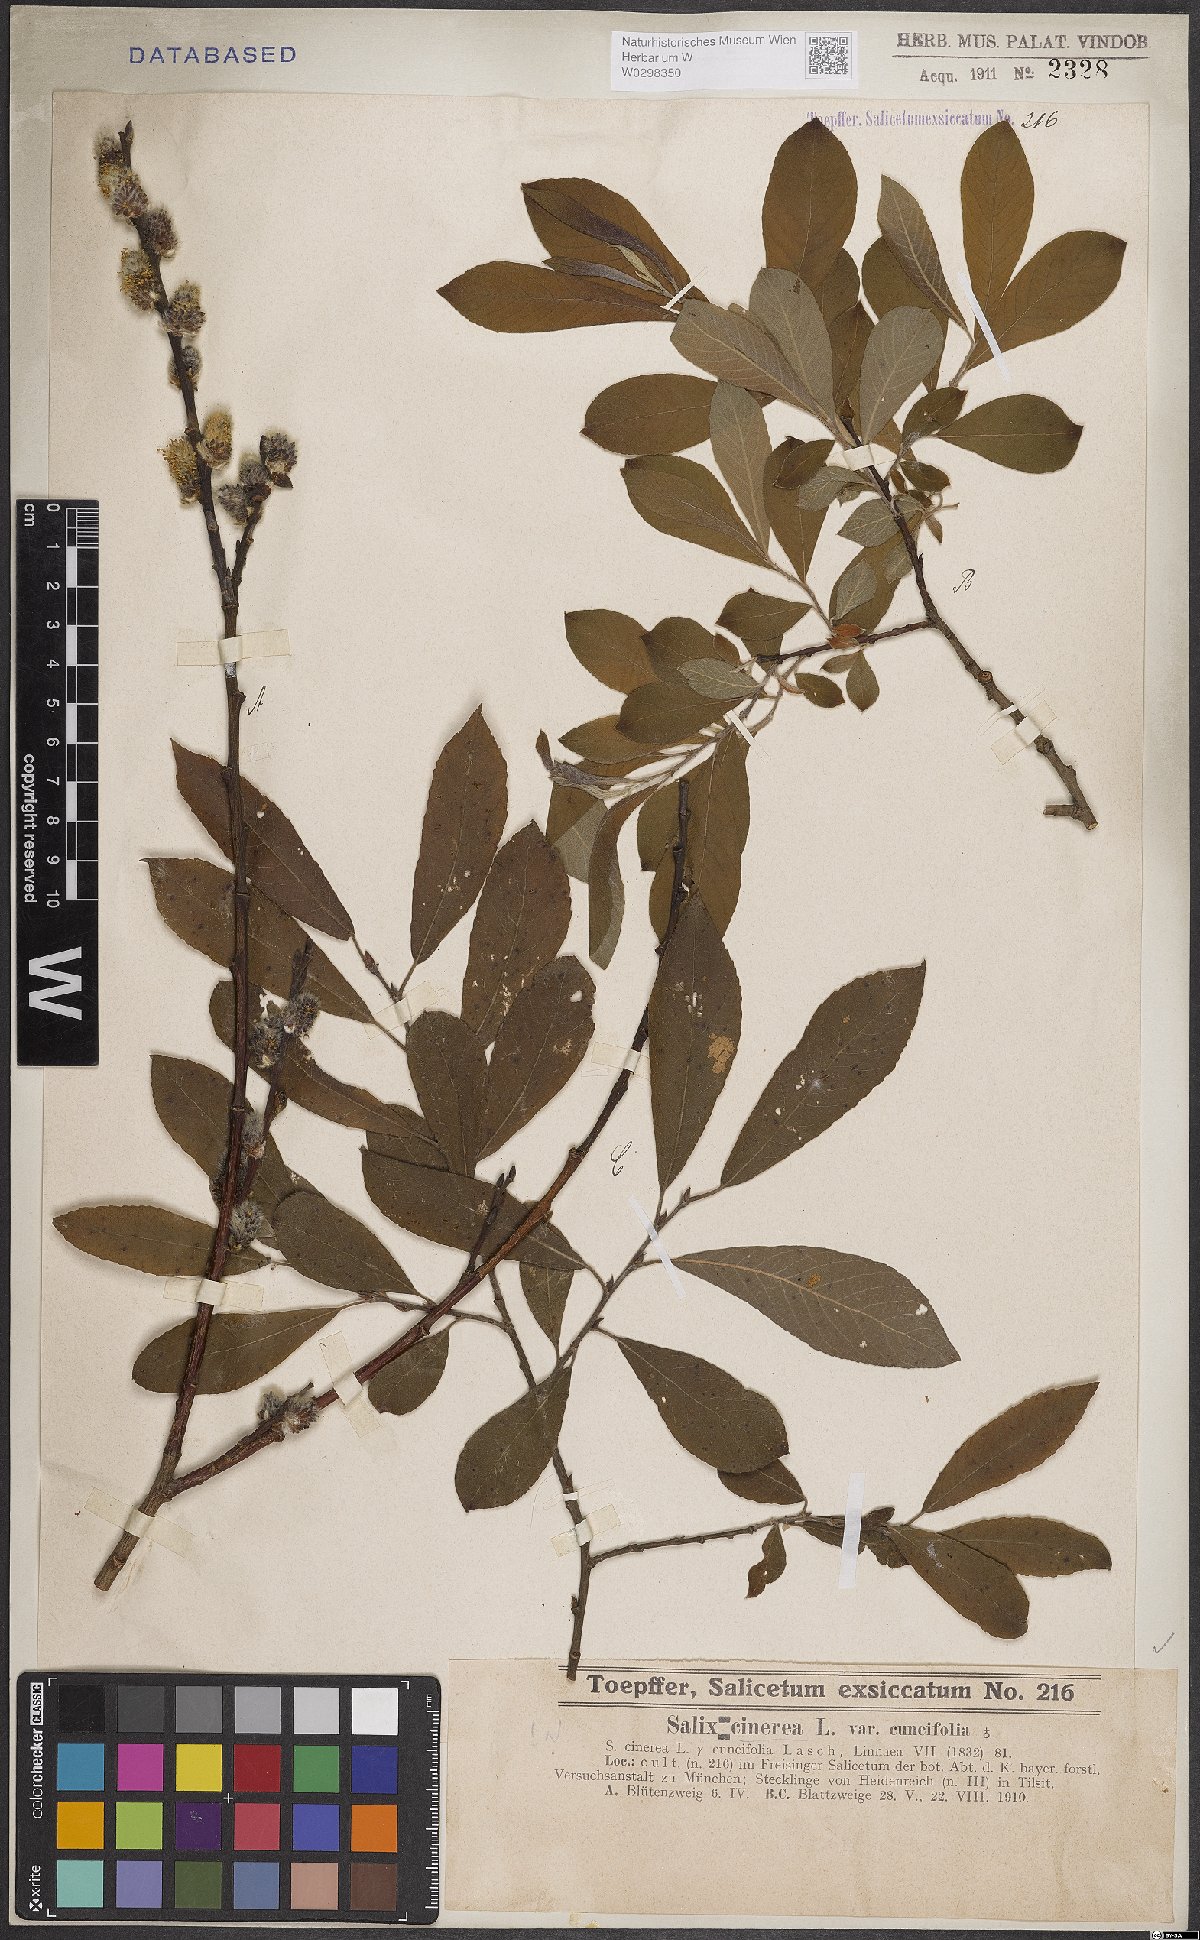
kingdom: Plantae
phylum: Tracheophyta
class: Magnoliopsida
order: Malpighiales
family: Salicaceae
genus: Salix
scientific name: Salix cinerea
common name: Common sallow
